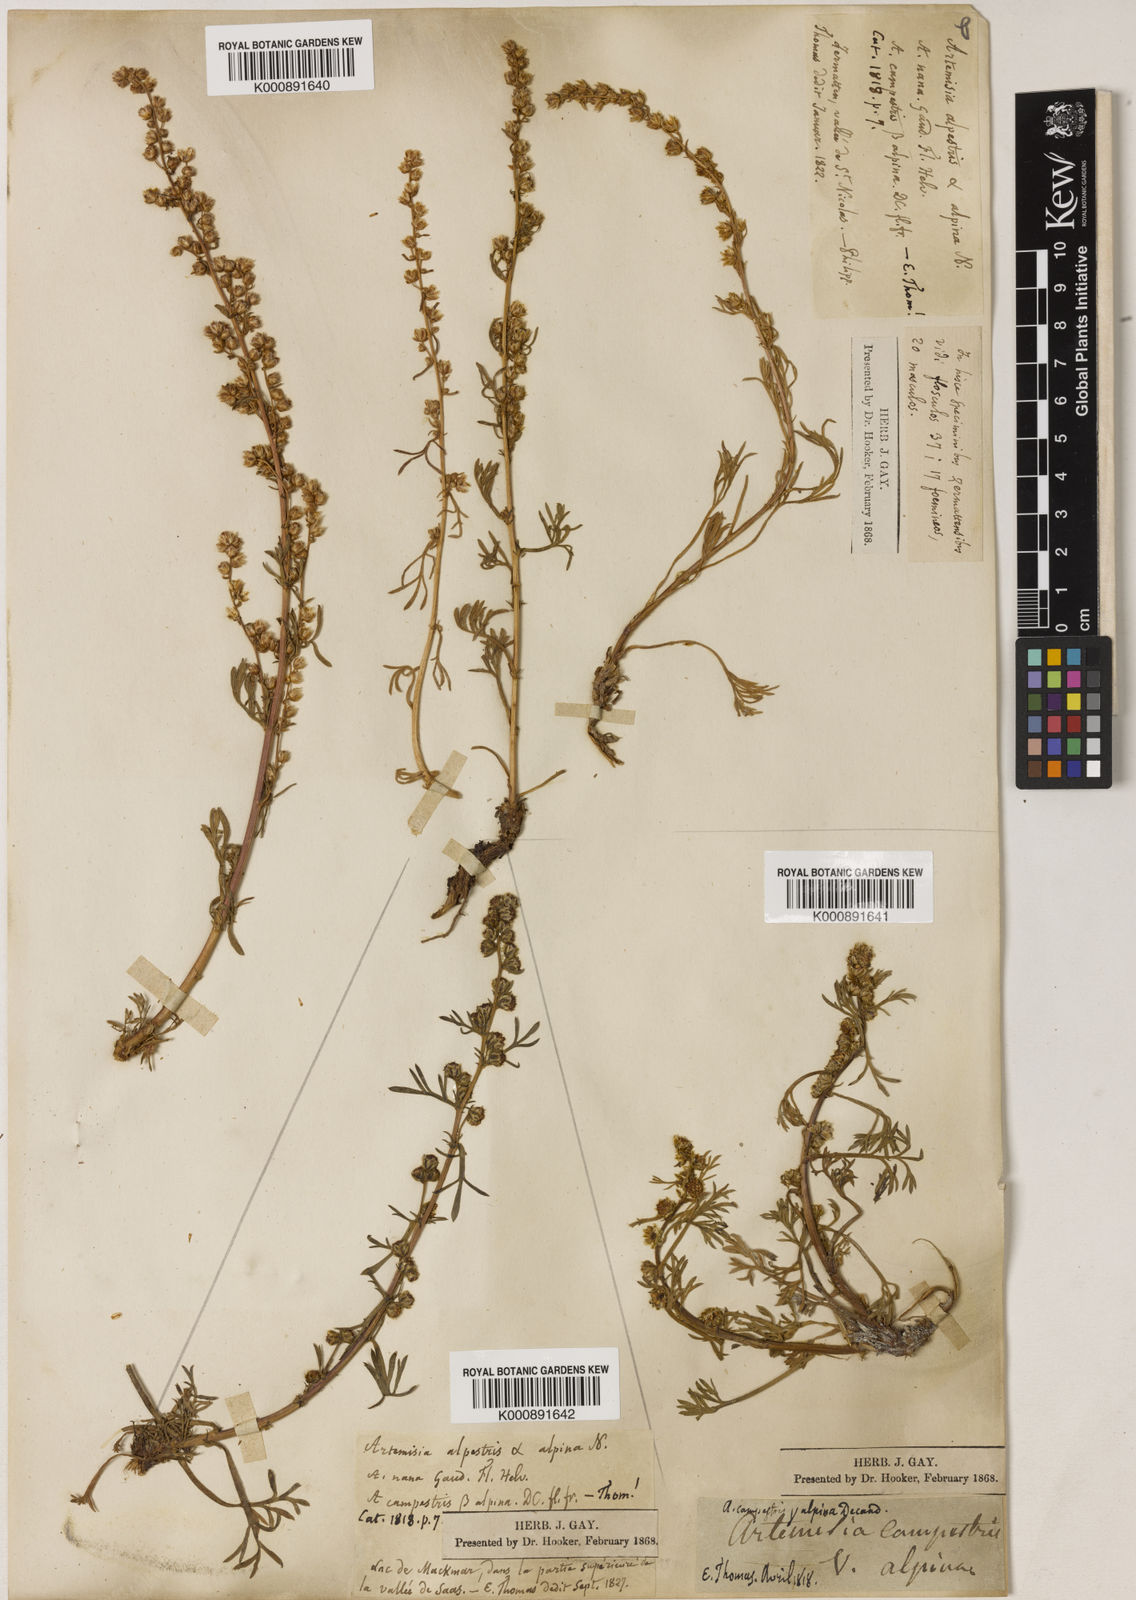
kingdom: Plantae
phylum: Tracheophyta
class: Magnoliopsida
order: Asterales
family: Asteraceae
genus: Artemisia
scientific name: Artemisia caerulescens
